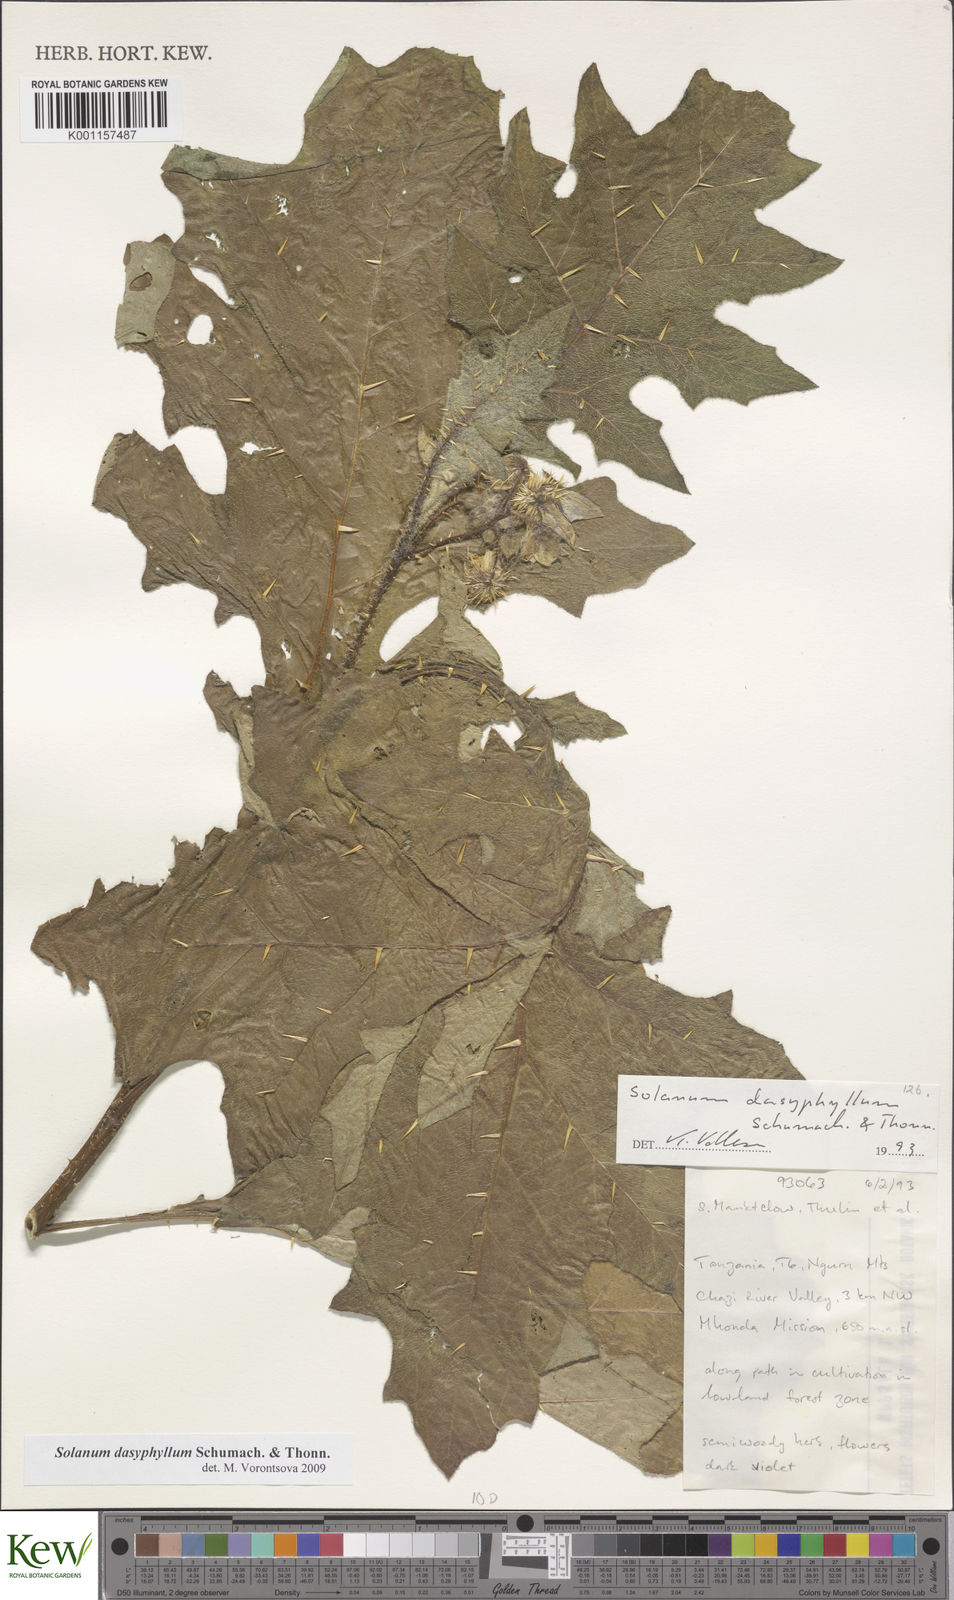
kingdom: Plantae
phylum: Tracheophyta
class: Magnoliopsida
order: Solanales
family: Solanaceae
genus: Solanum
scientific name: Solanum dasyphyllum
